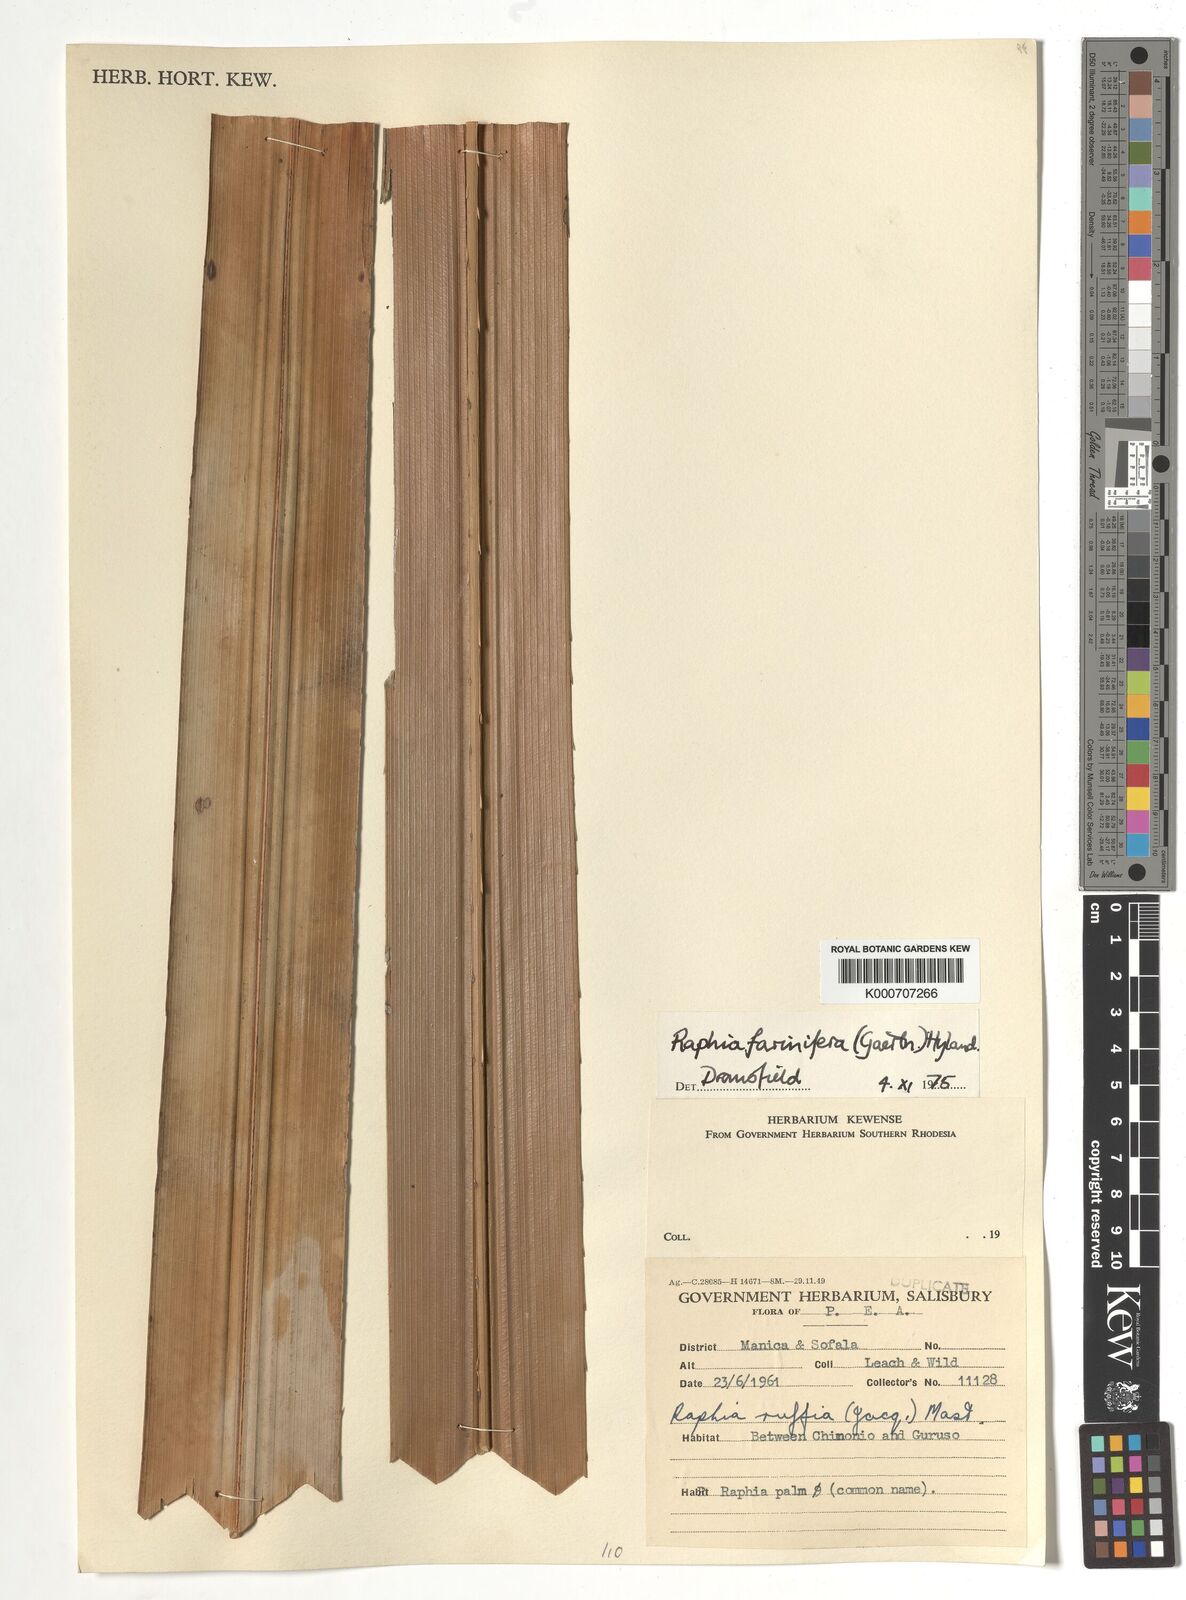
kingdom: Plantae
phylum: Tracheophyta
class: Liliopsida
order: Arecales
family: Arecaceae
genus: Raphia
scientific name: Raphia farinifera
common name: Raphia palm
